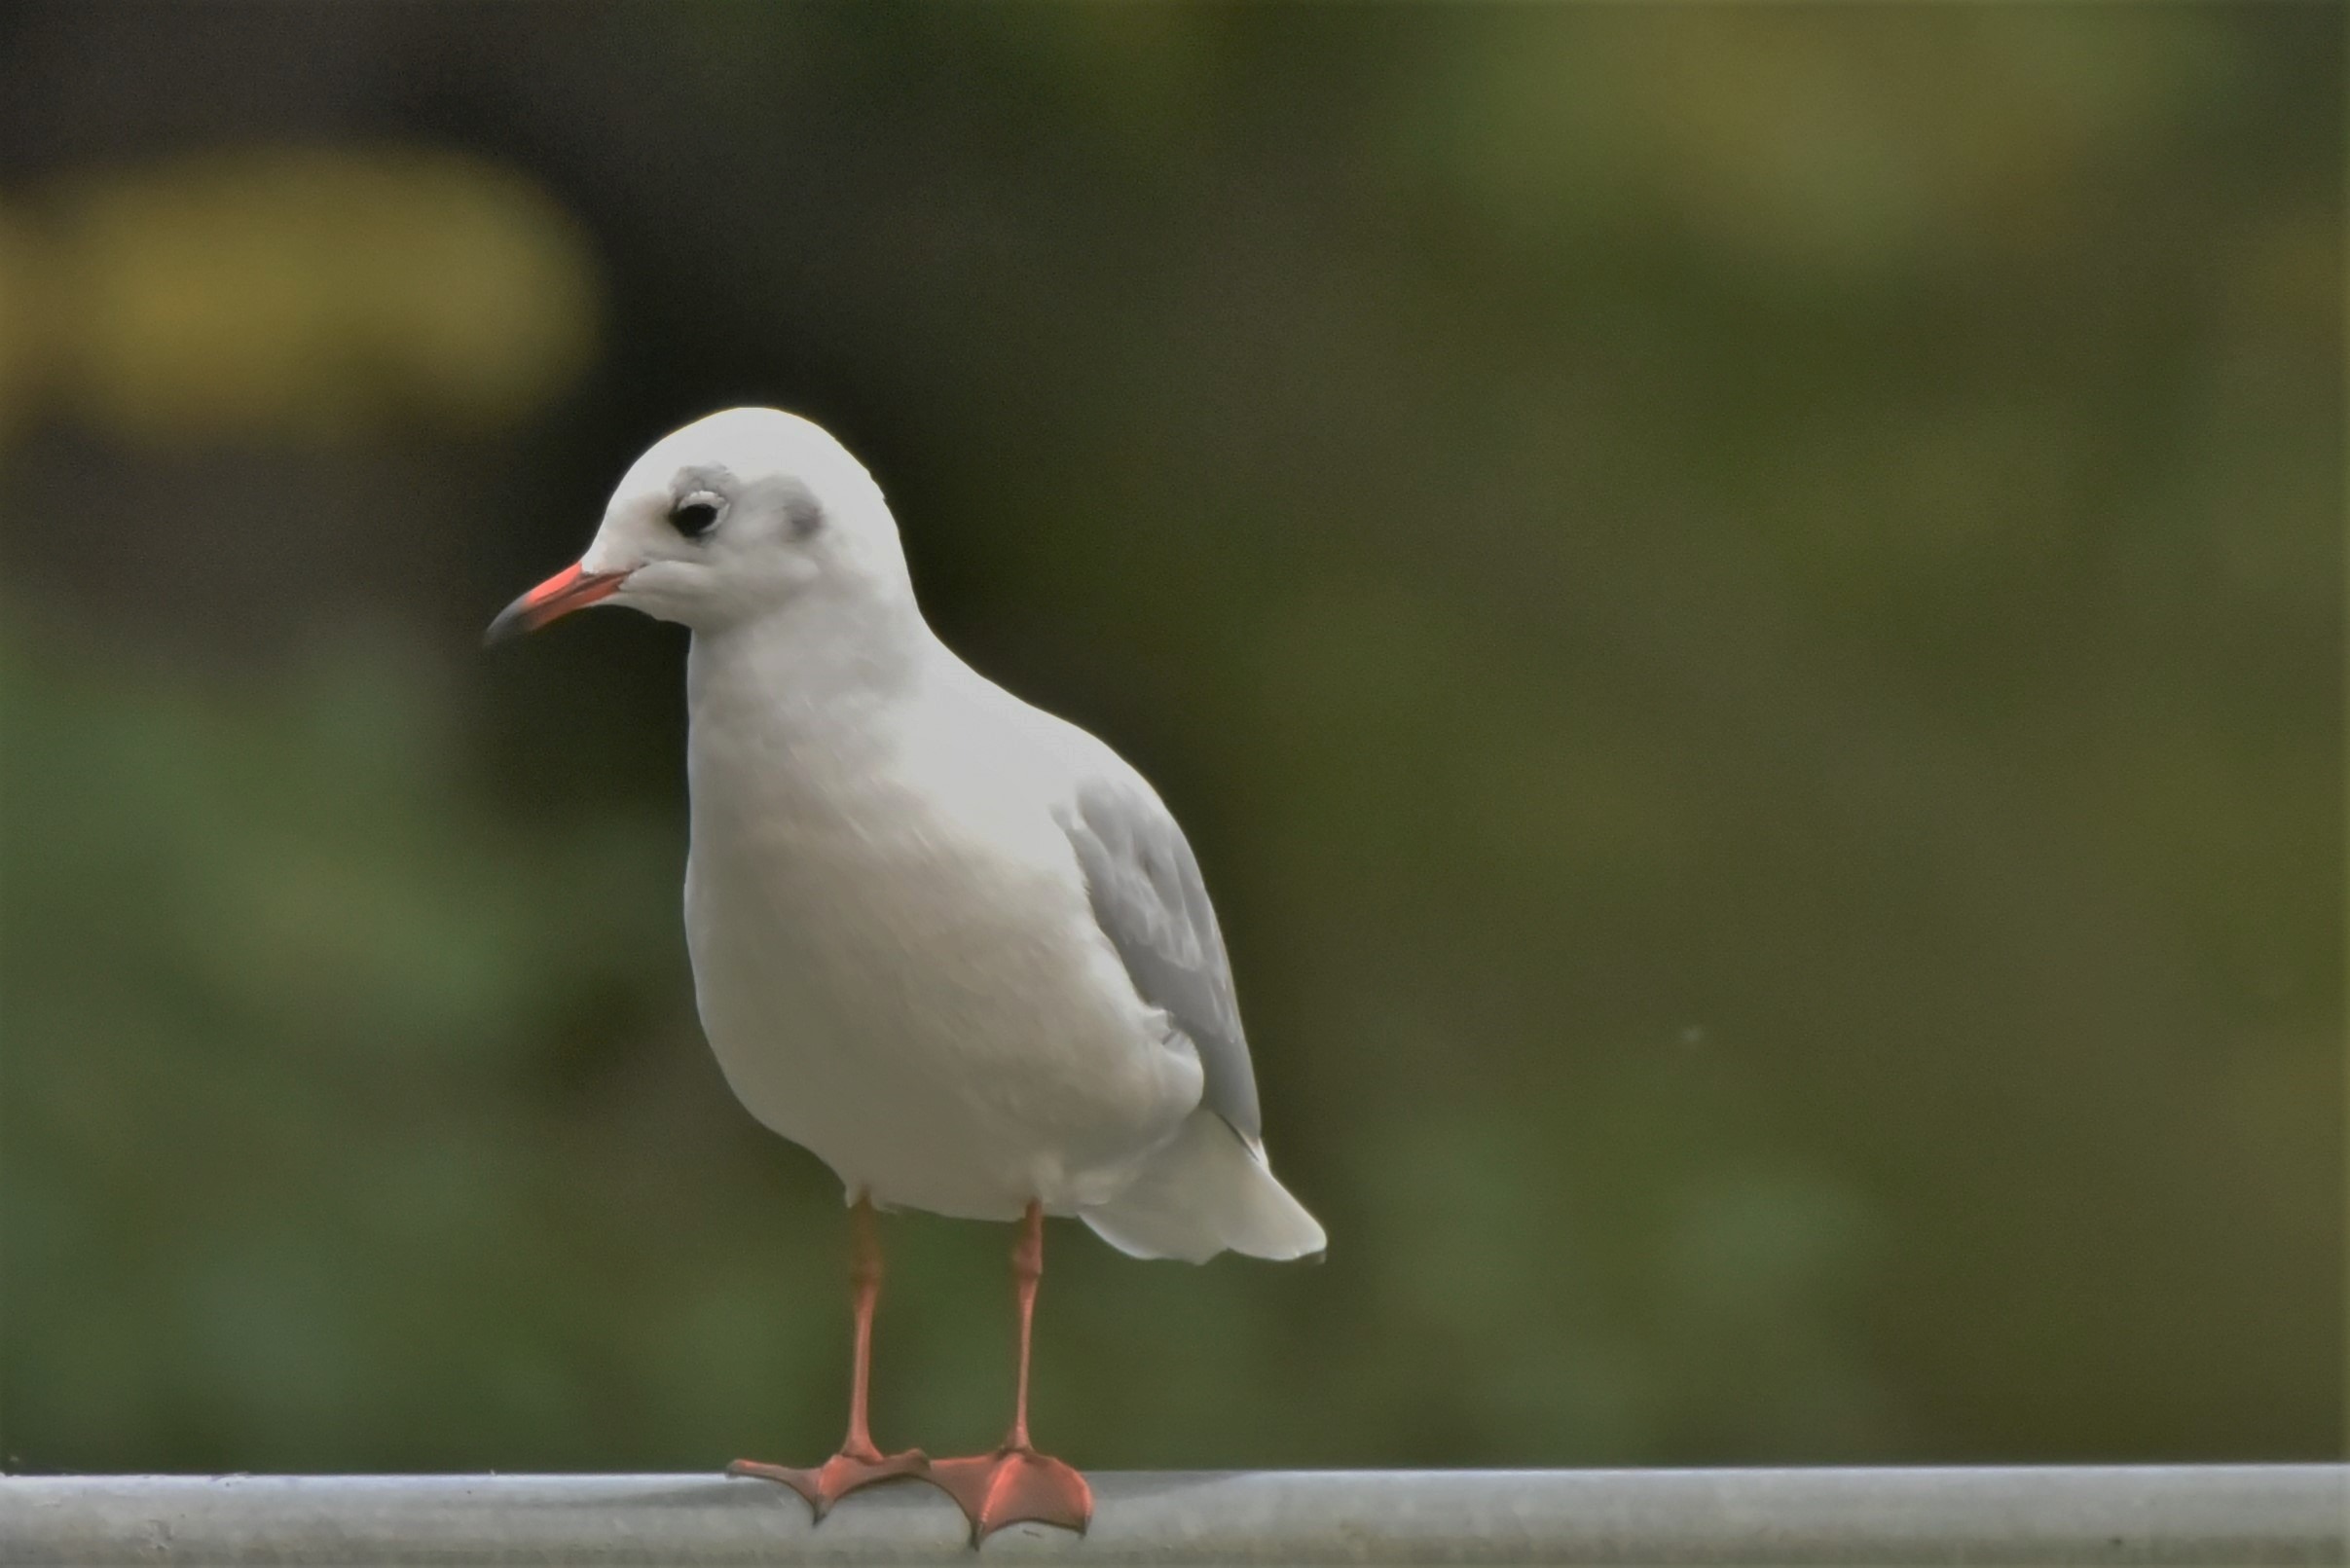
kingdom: Animalia
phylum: Chordata
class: Aves
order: Charadriiformes
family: Laridae
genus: Chroicocephalus
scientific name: Chroicocephalus ridibundus
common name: Hættemåge
